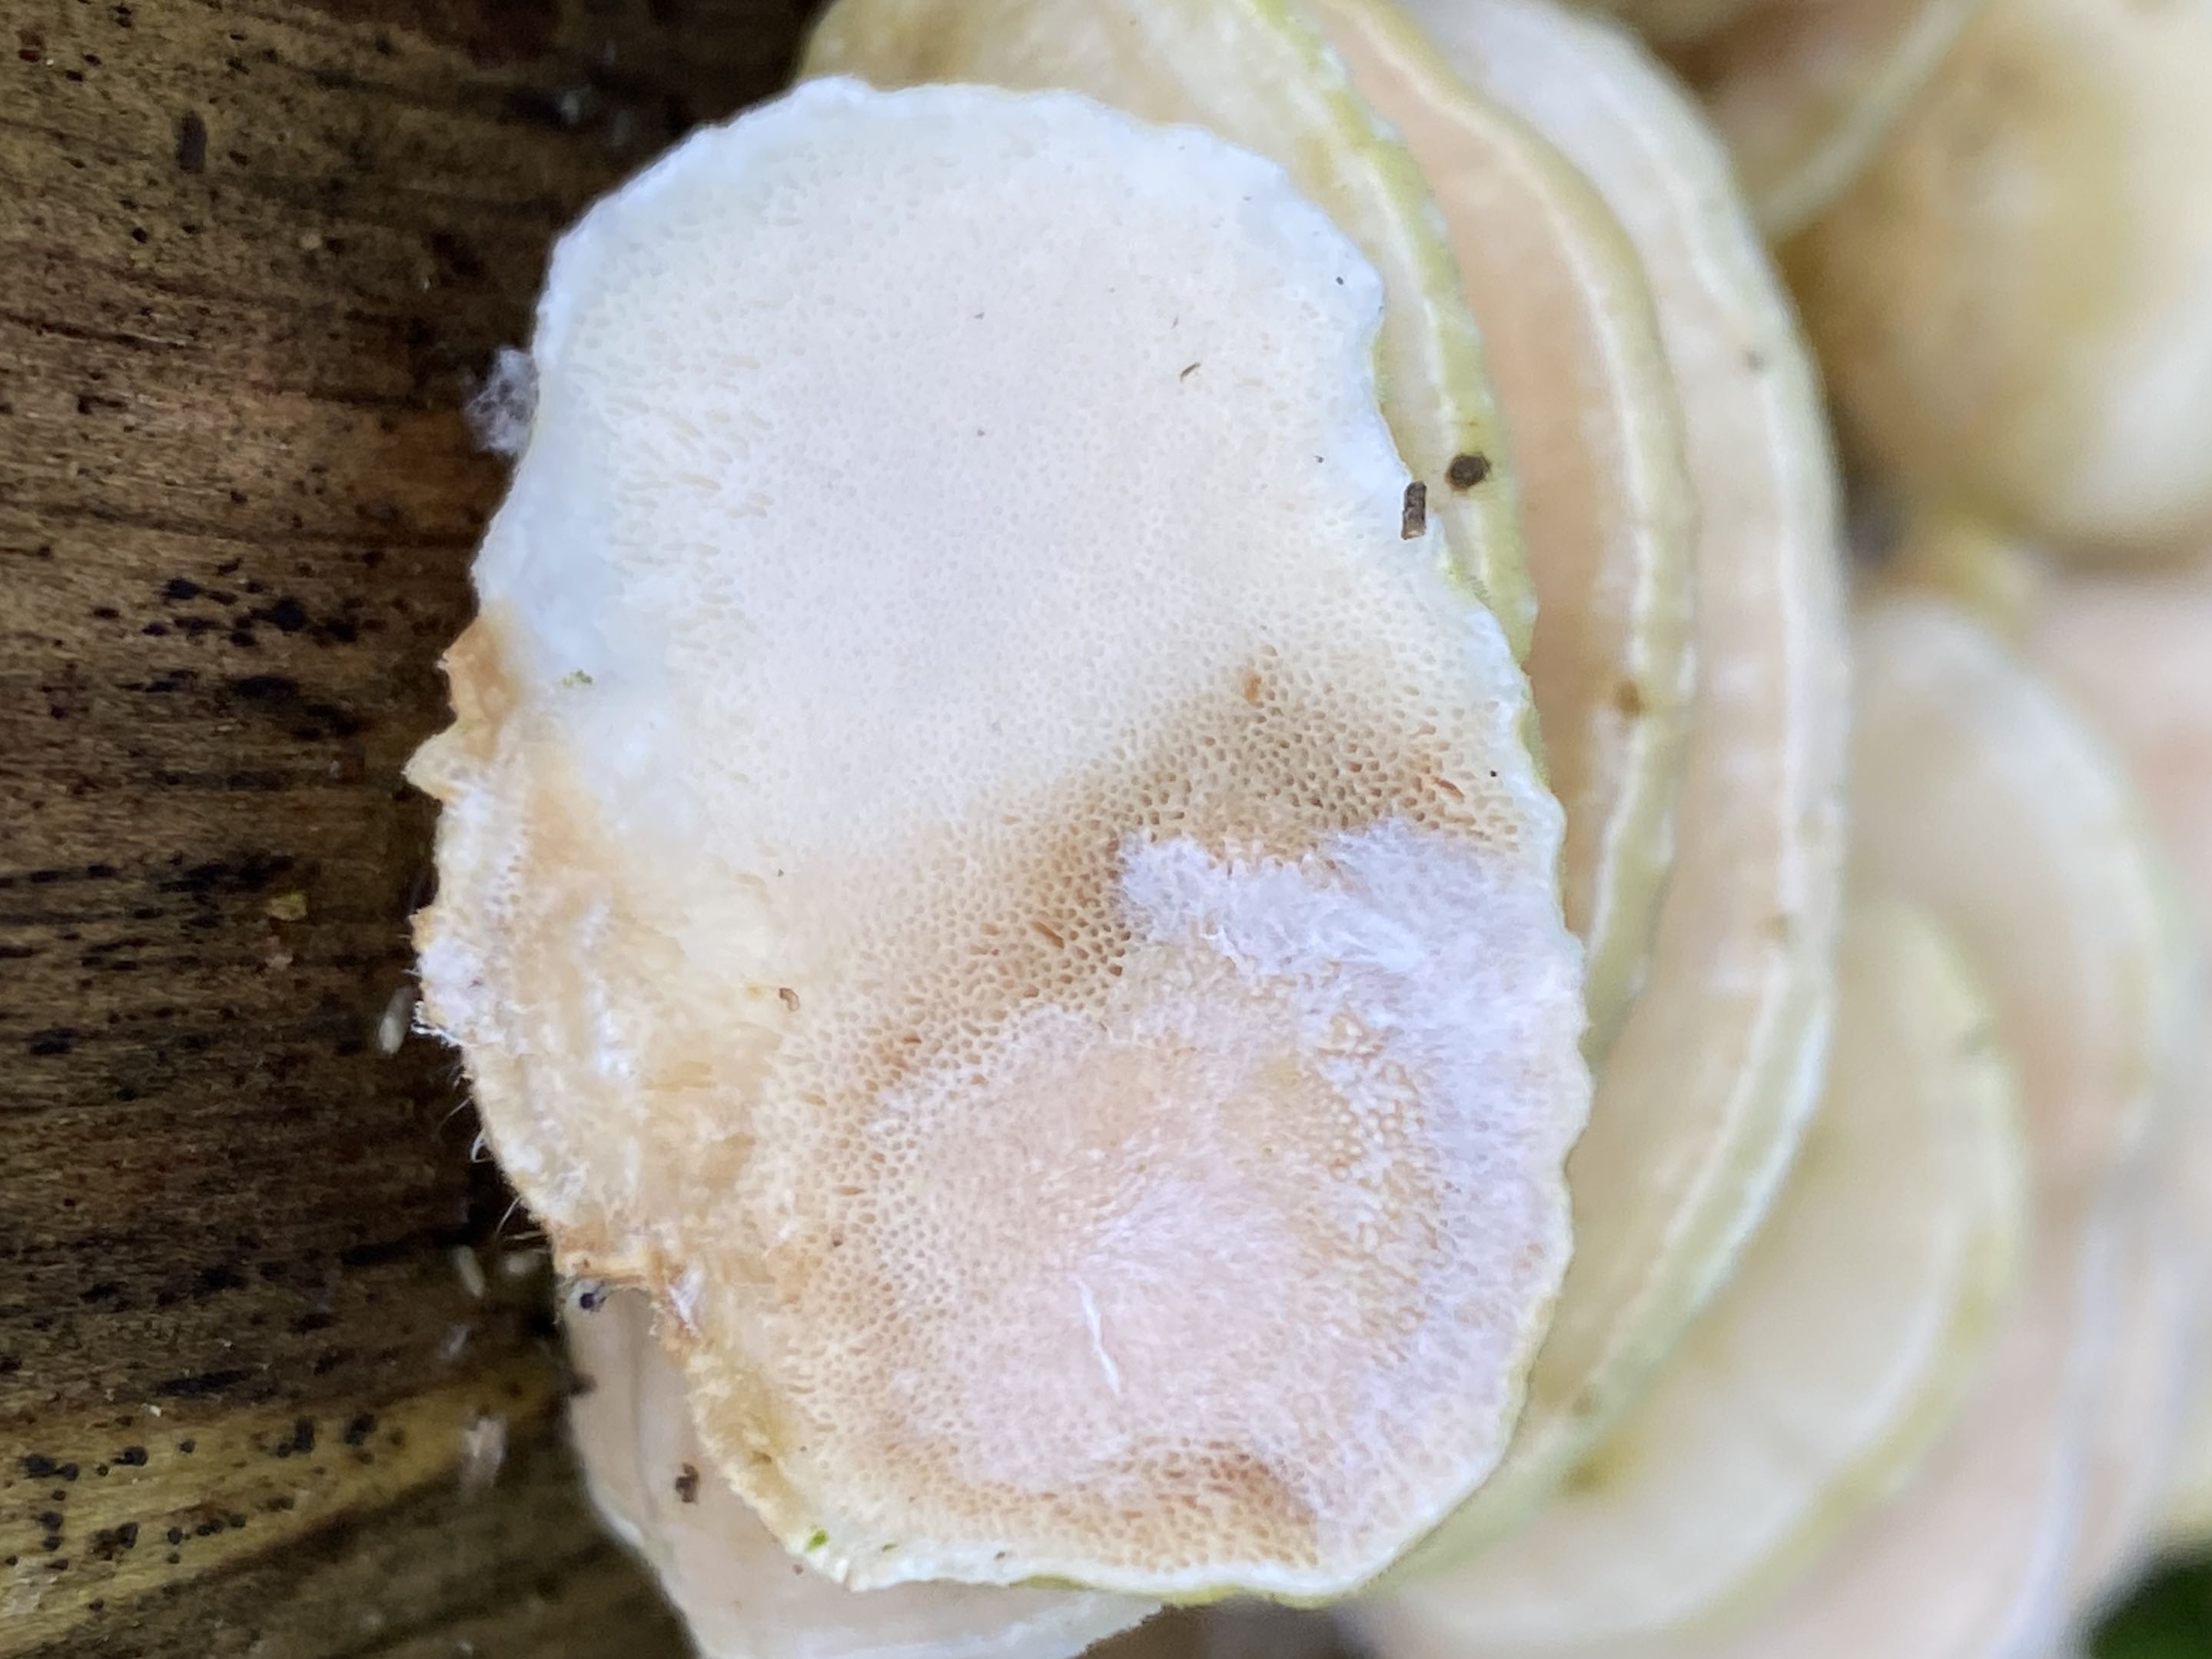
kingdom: Fungi
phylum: Basidiomycota
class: Agaricomycetes
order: Polyporales
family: Polyporaceae
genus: Trametes
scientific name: Trametes hirsuta
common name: håret læderporesvamp
